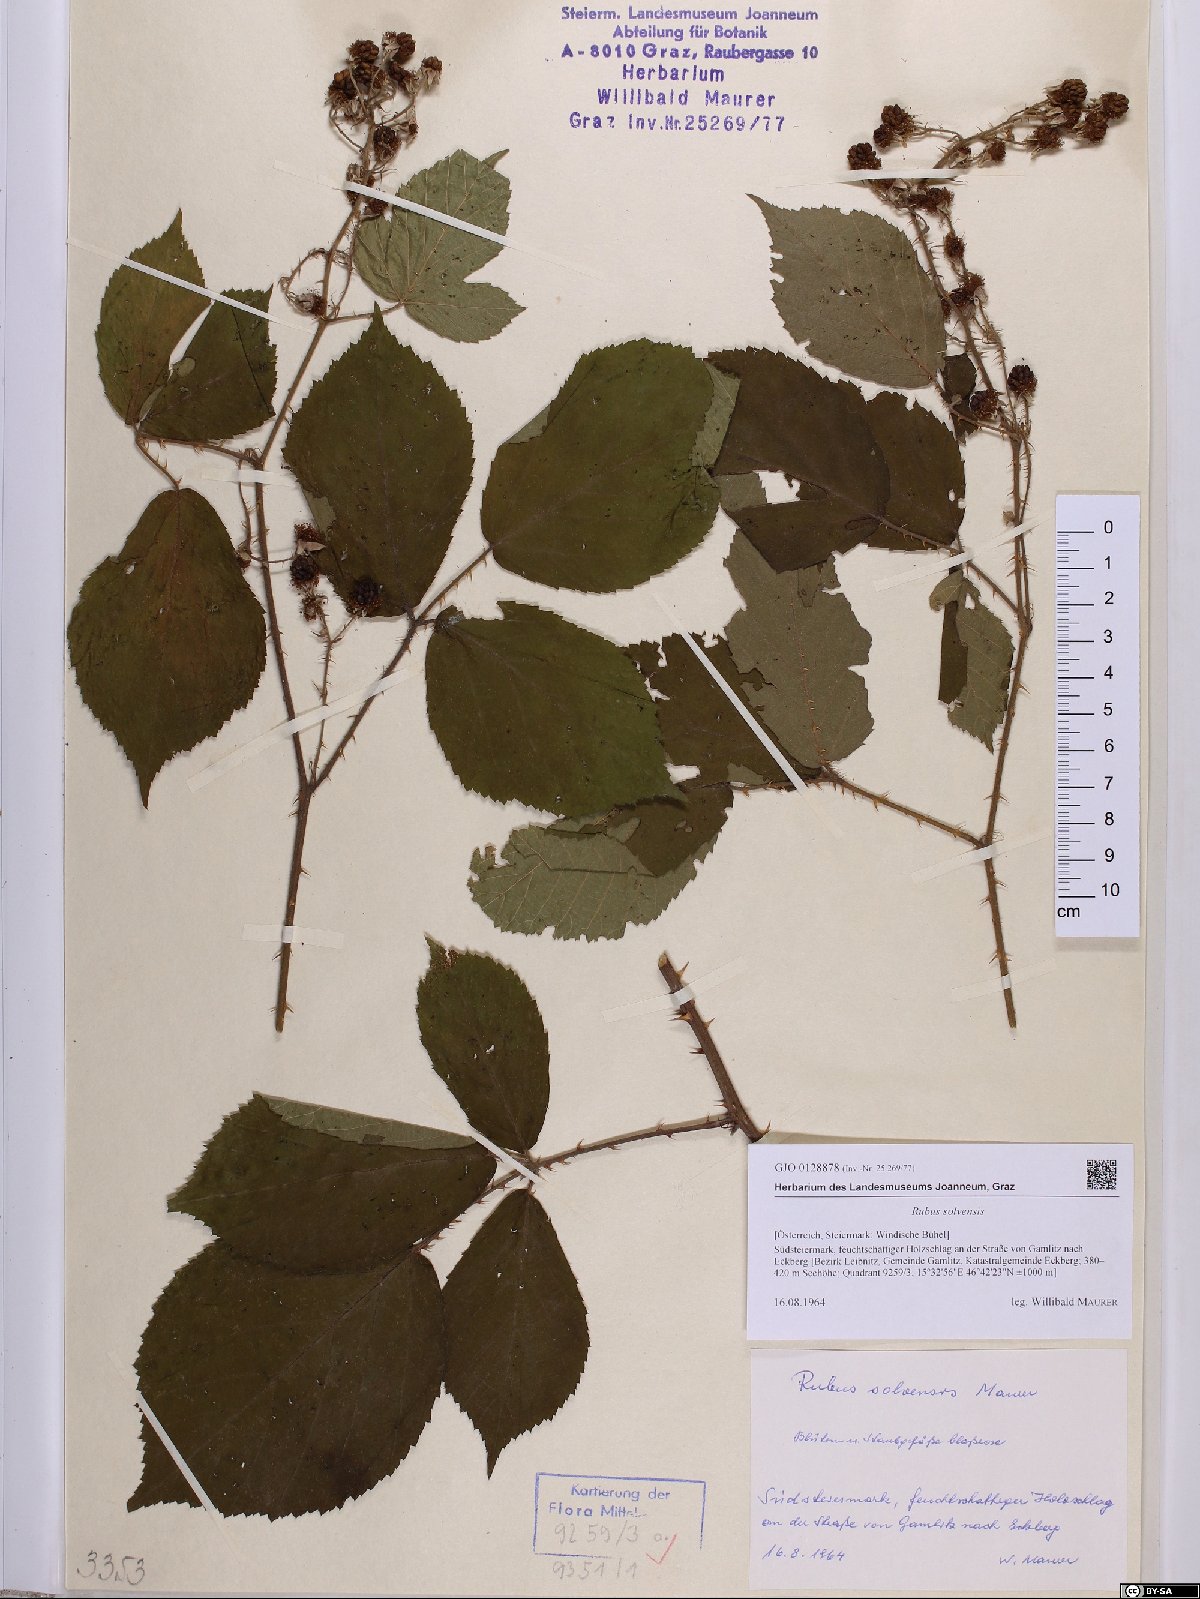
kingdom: Plantae
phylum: Tracheophyta
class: Magnoliopsida
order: Rosales
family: Rosaceae
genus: Rubus
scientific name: Rubus solvensis
